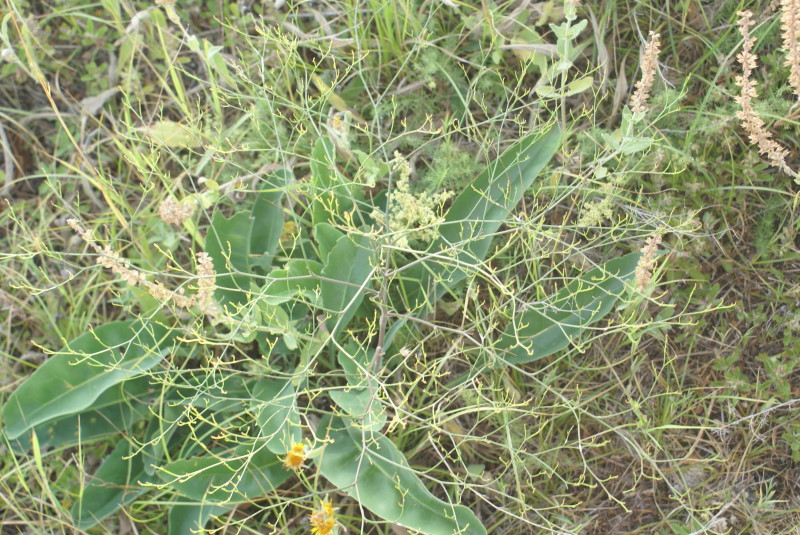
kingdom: Plantae
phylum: Tracheophyta
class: Magnoliopsida
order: Brassicales
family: Brassicaceae
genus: Crambe
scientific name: Crambe maritima
